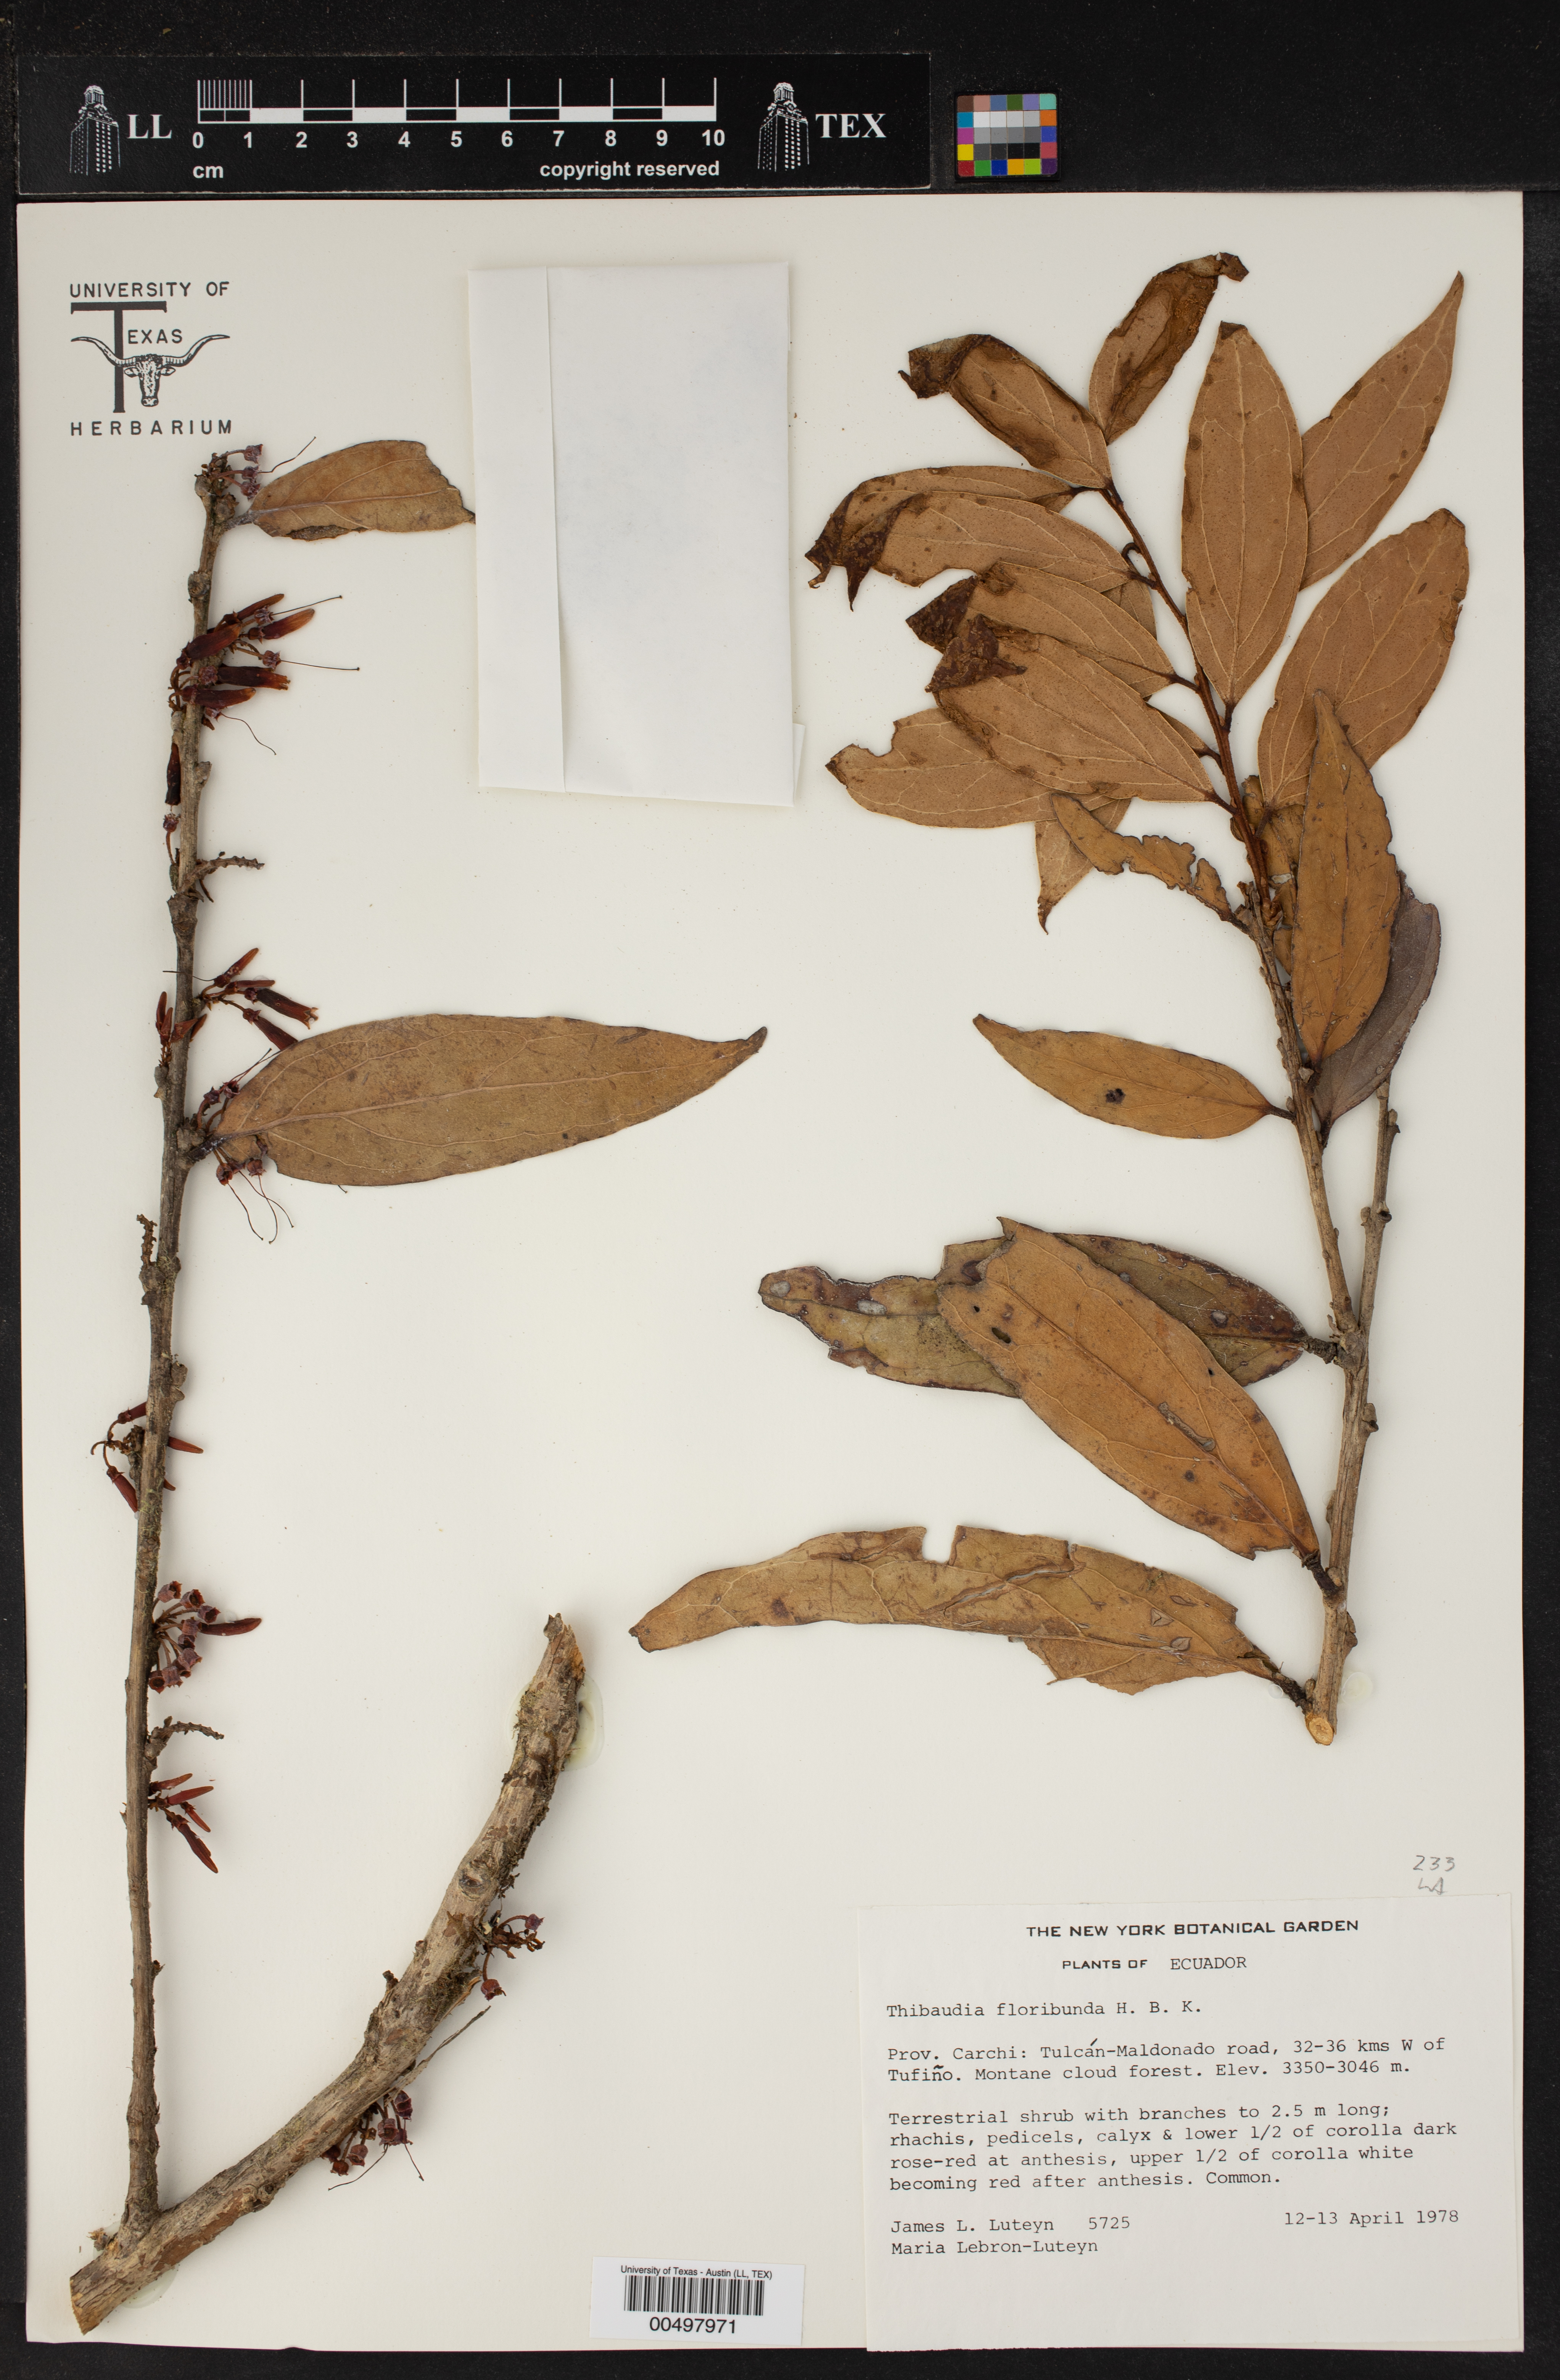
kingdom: Plantae
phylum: Tracheophyta
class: Magnoliopsida
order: Ericales
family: Ericaceae
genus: Thibaudia
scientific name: Thibaudia floribunda
